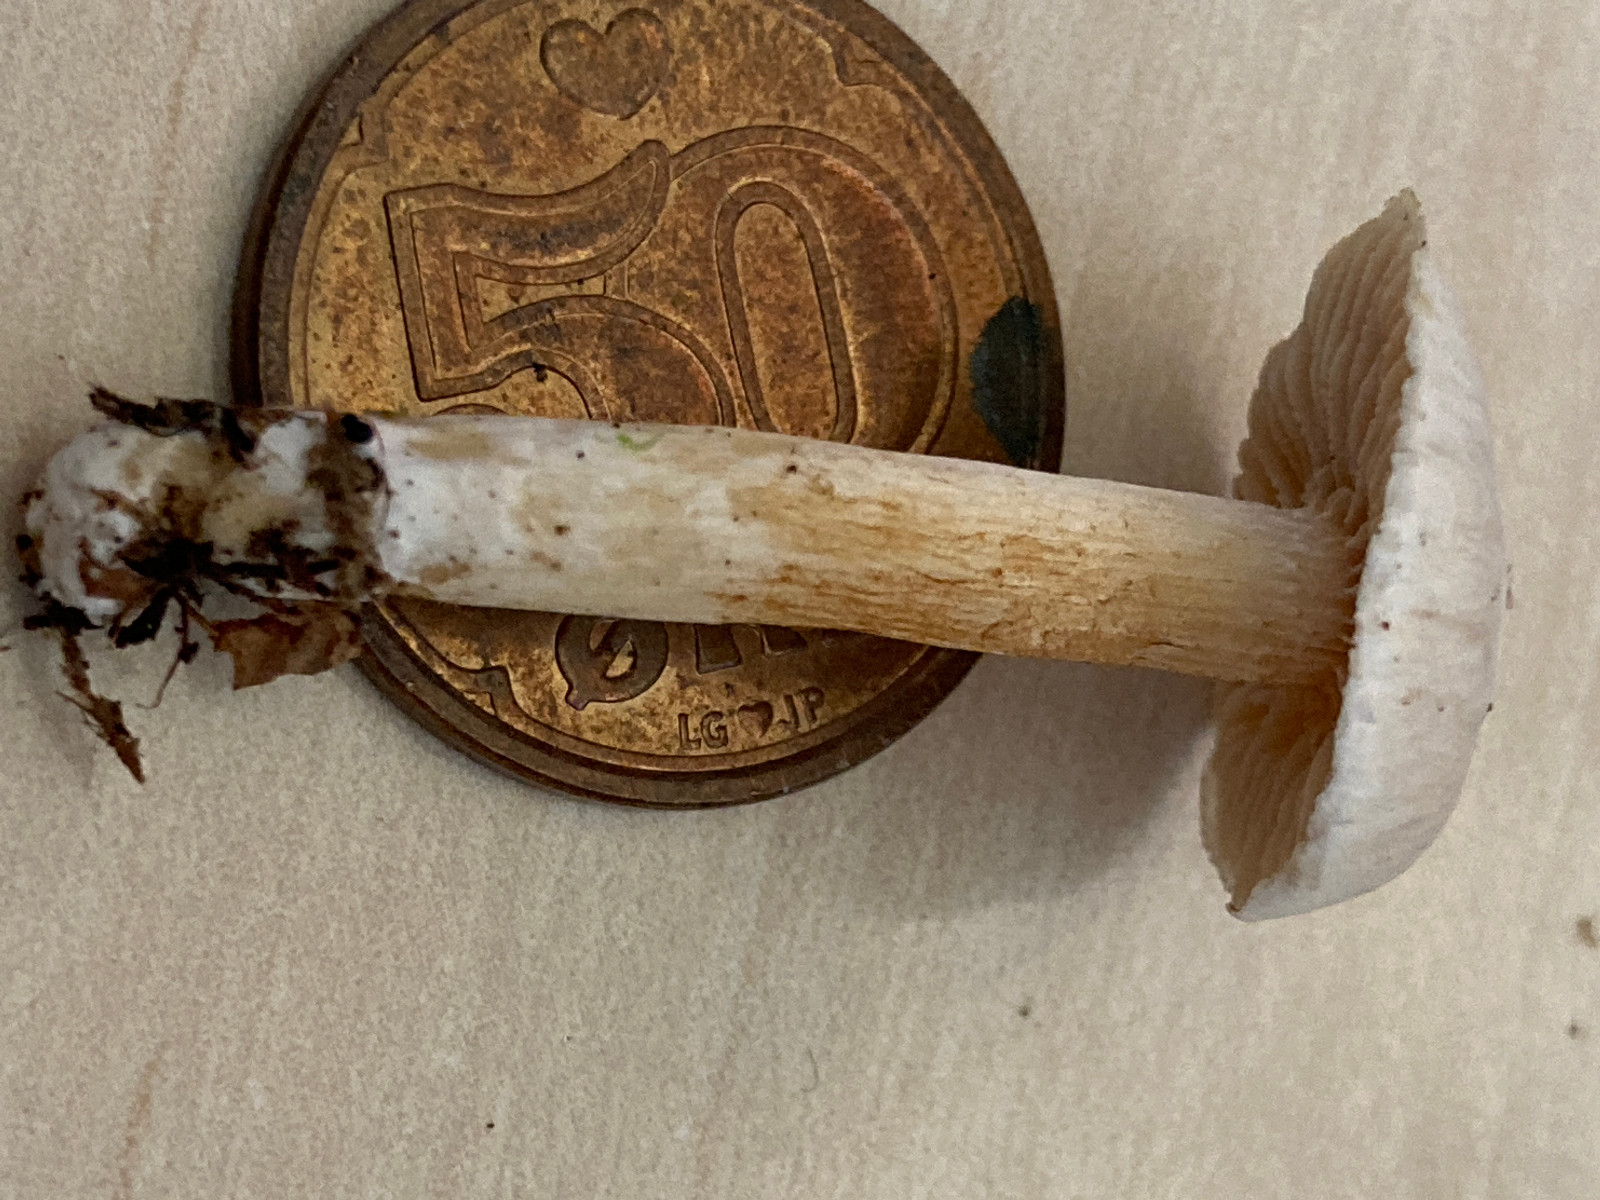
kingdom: Fungi
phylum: Basidiomycota
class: Agaricomycetes
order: Agaricales
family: Cortinariaceae
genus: Thaxterogaster
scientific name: Thaxterogaster
